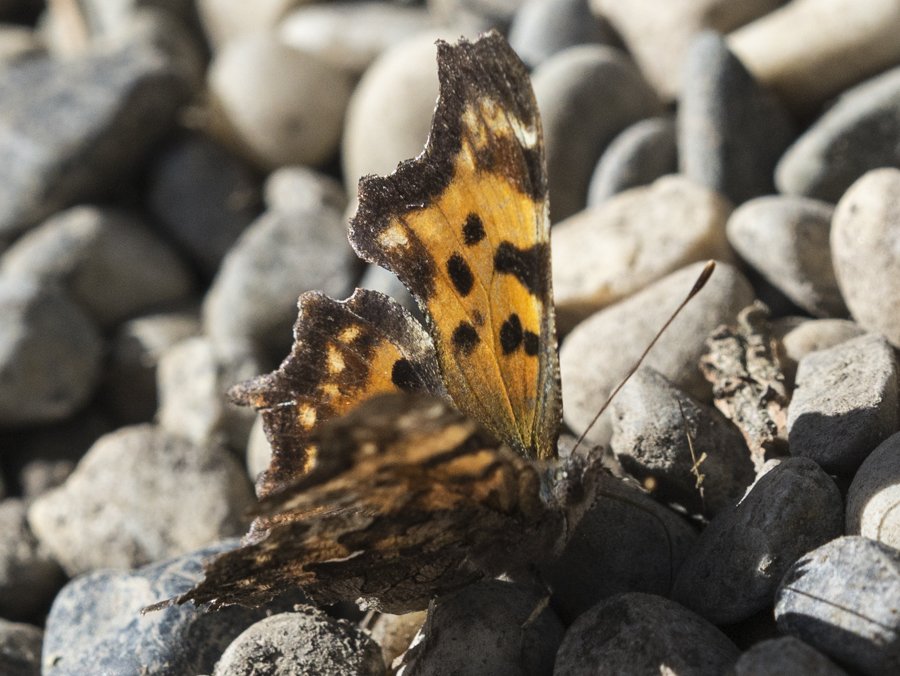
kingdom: Animalia
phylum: Arthropoda
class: Insecta
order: Lepidoptera
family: Nymphalidae
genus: Polygonia
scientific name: Polygonia faunus
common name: Green Comma
